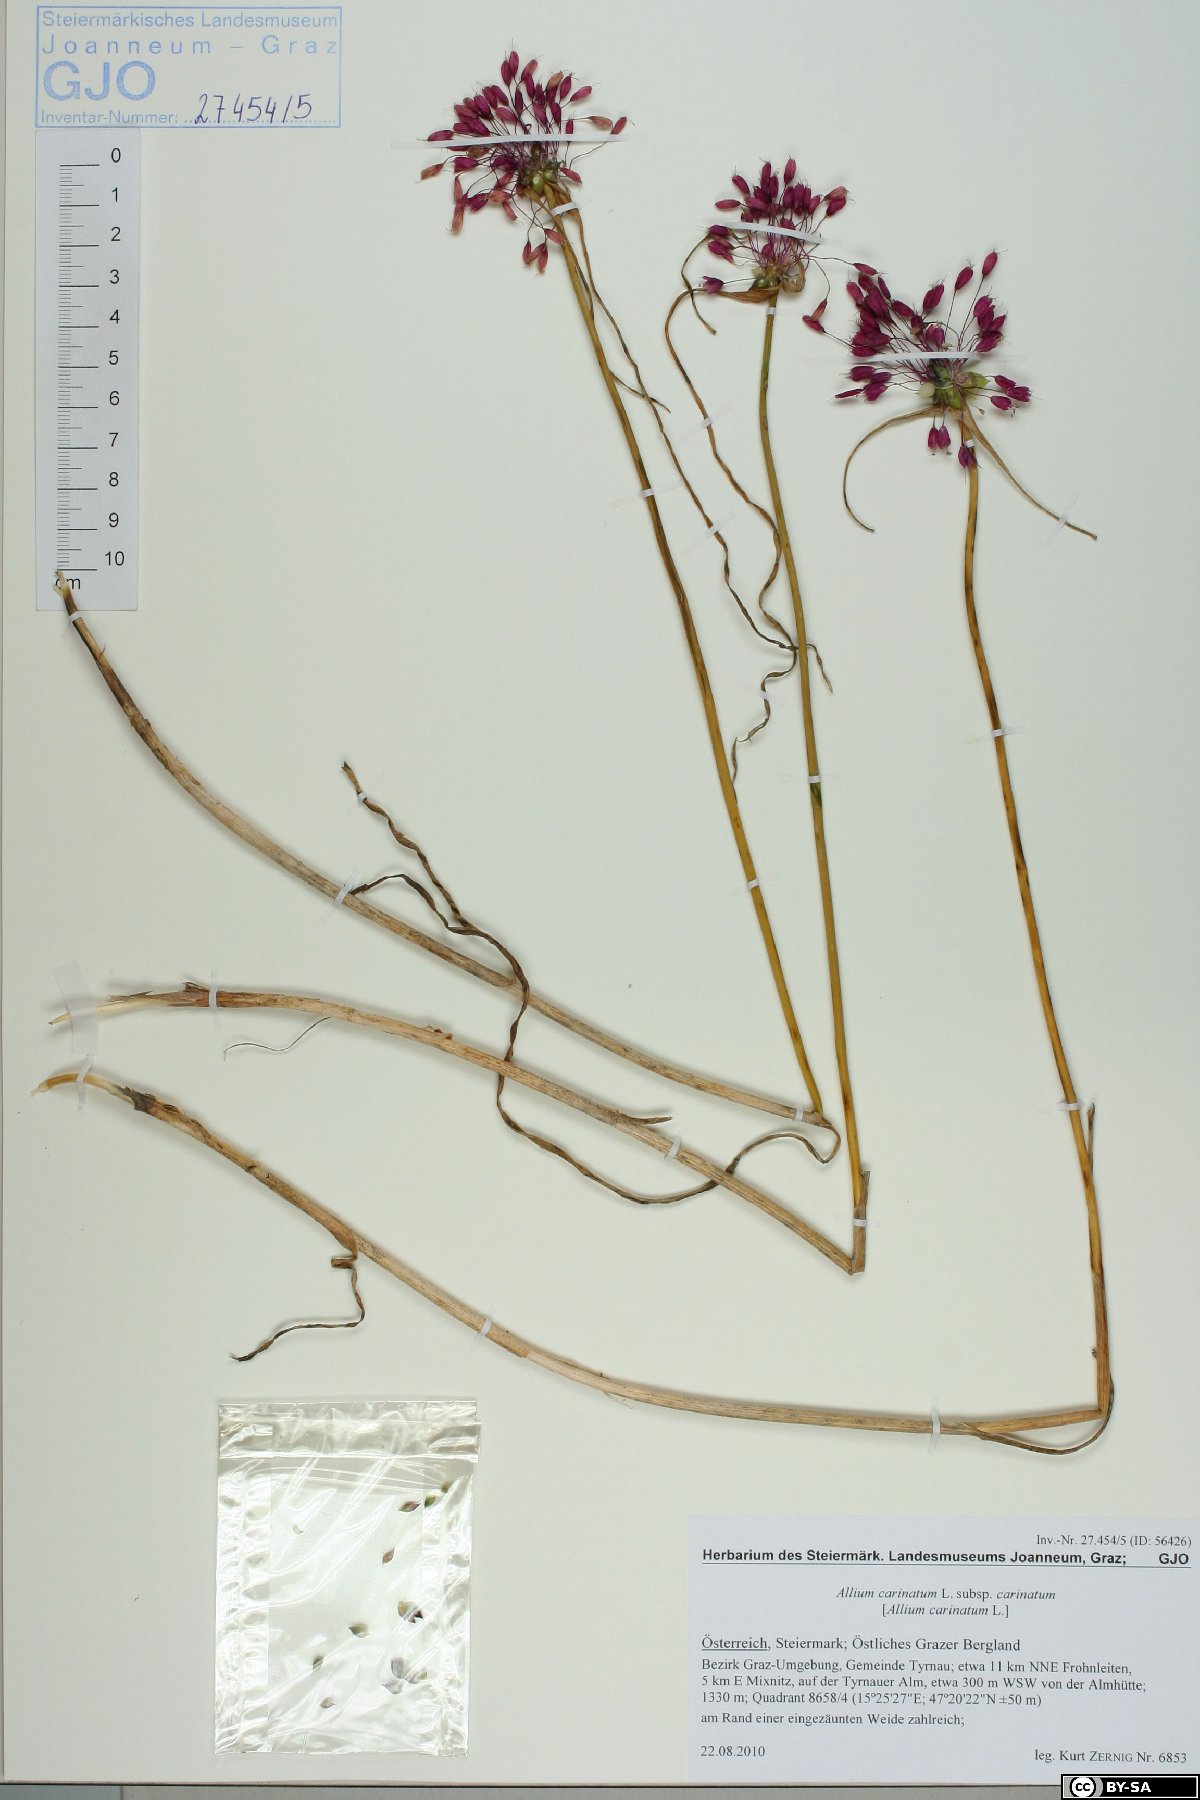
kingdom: Plantae
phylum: Tracheophyta
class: Liliopsida
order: Asparagales
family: Amaryllidaceae
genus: Allium
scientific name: Allium carinatum
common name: Keeled garlic
